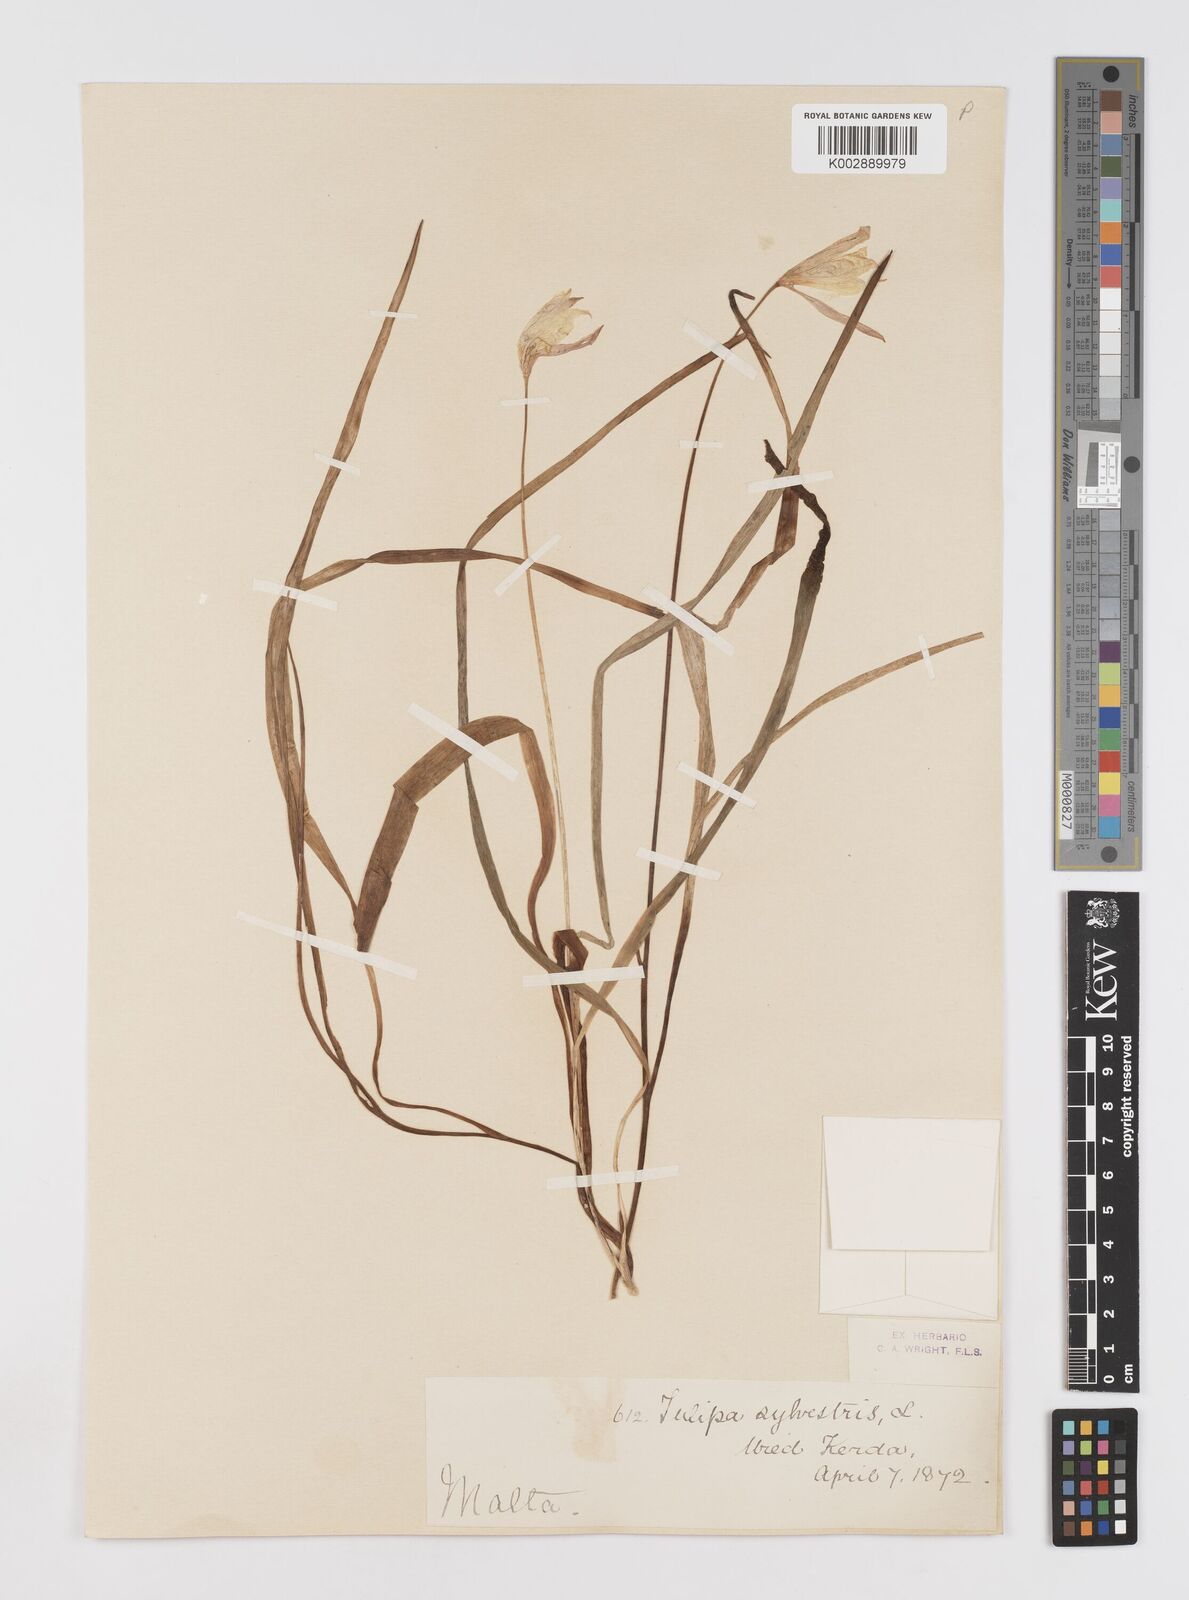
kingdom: Plantae
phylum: Tracheophyta
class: Liliopsida
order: Liliales
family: Liliaceae
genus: Tulipa
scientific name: Tulipa sylvestris
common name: Wild tulip
